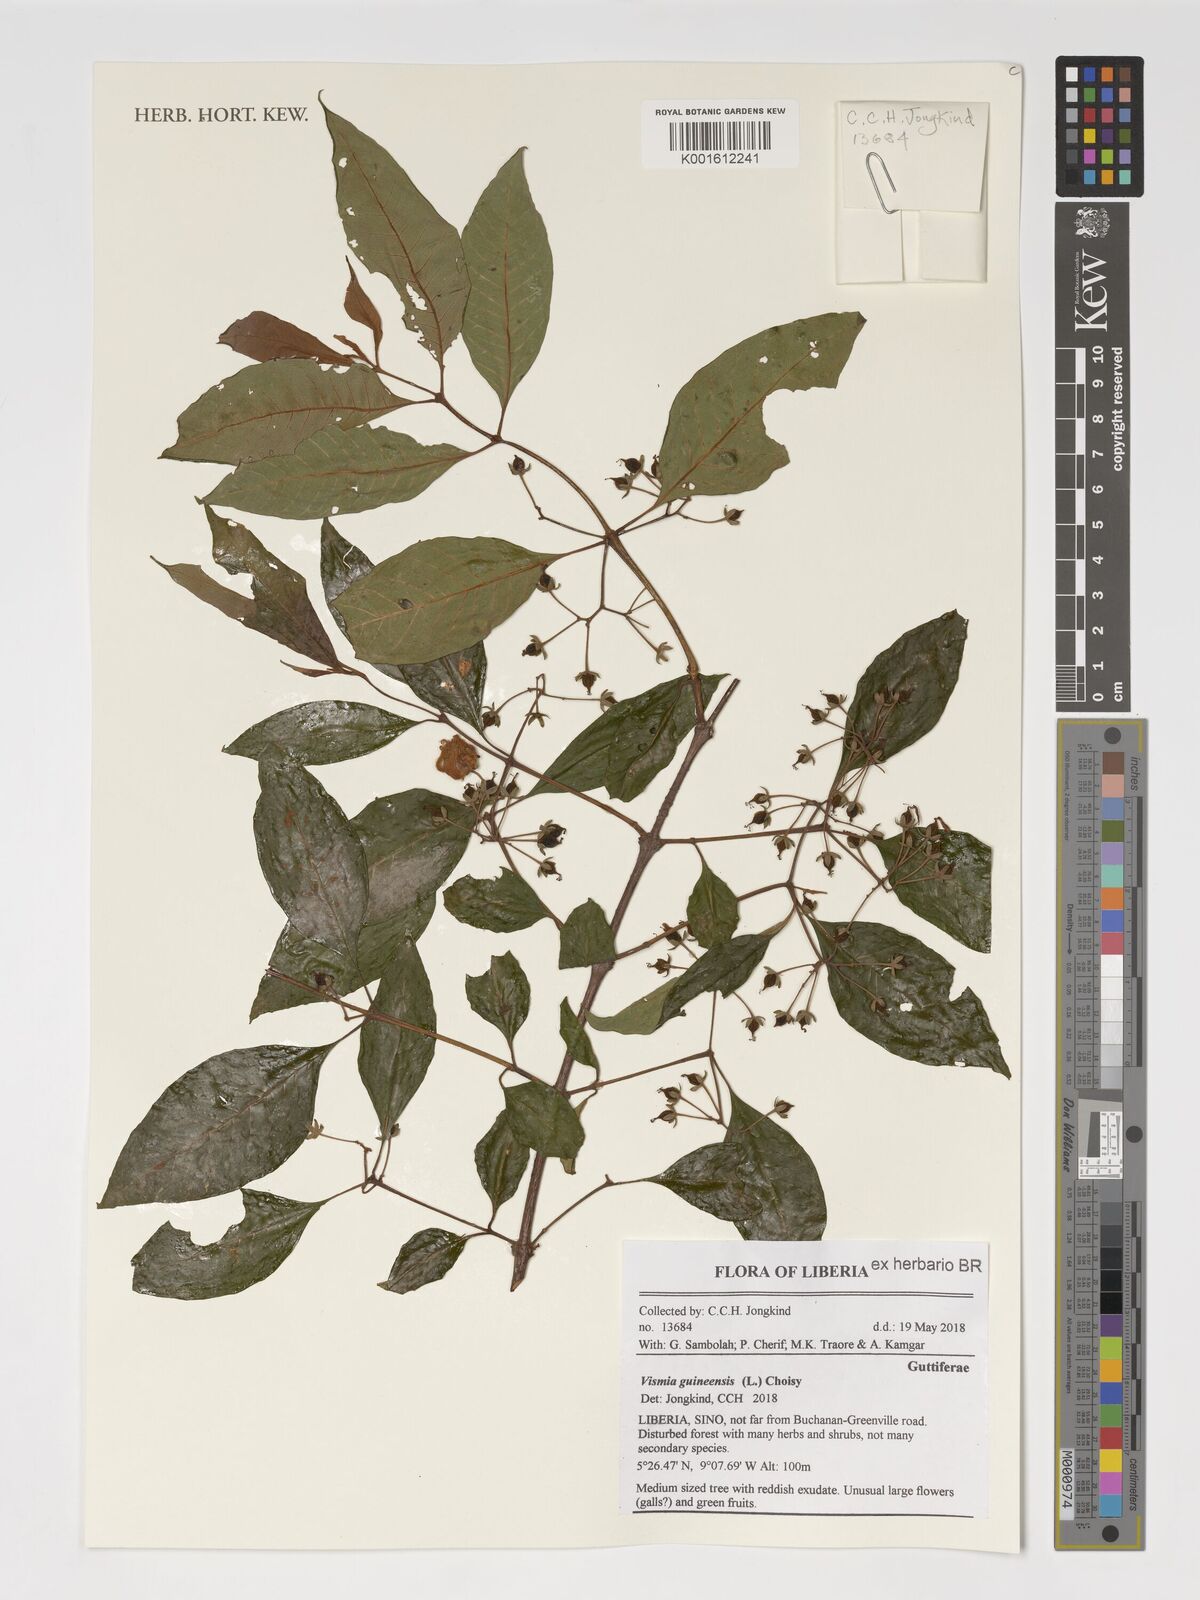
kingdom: Plantae
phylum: Tracheophyta
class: Magnoliopsida
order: Malpighiales
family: Hypericaceae
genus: Psorospermum
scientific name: Psorospermum guineense
